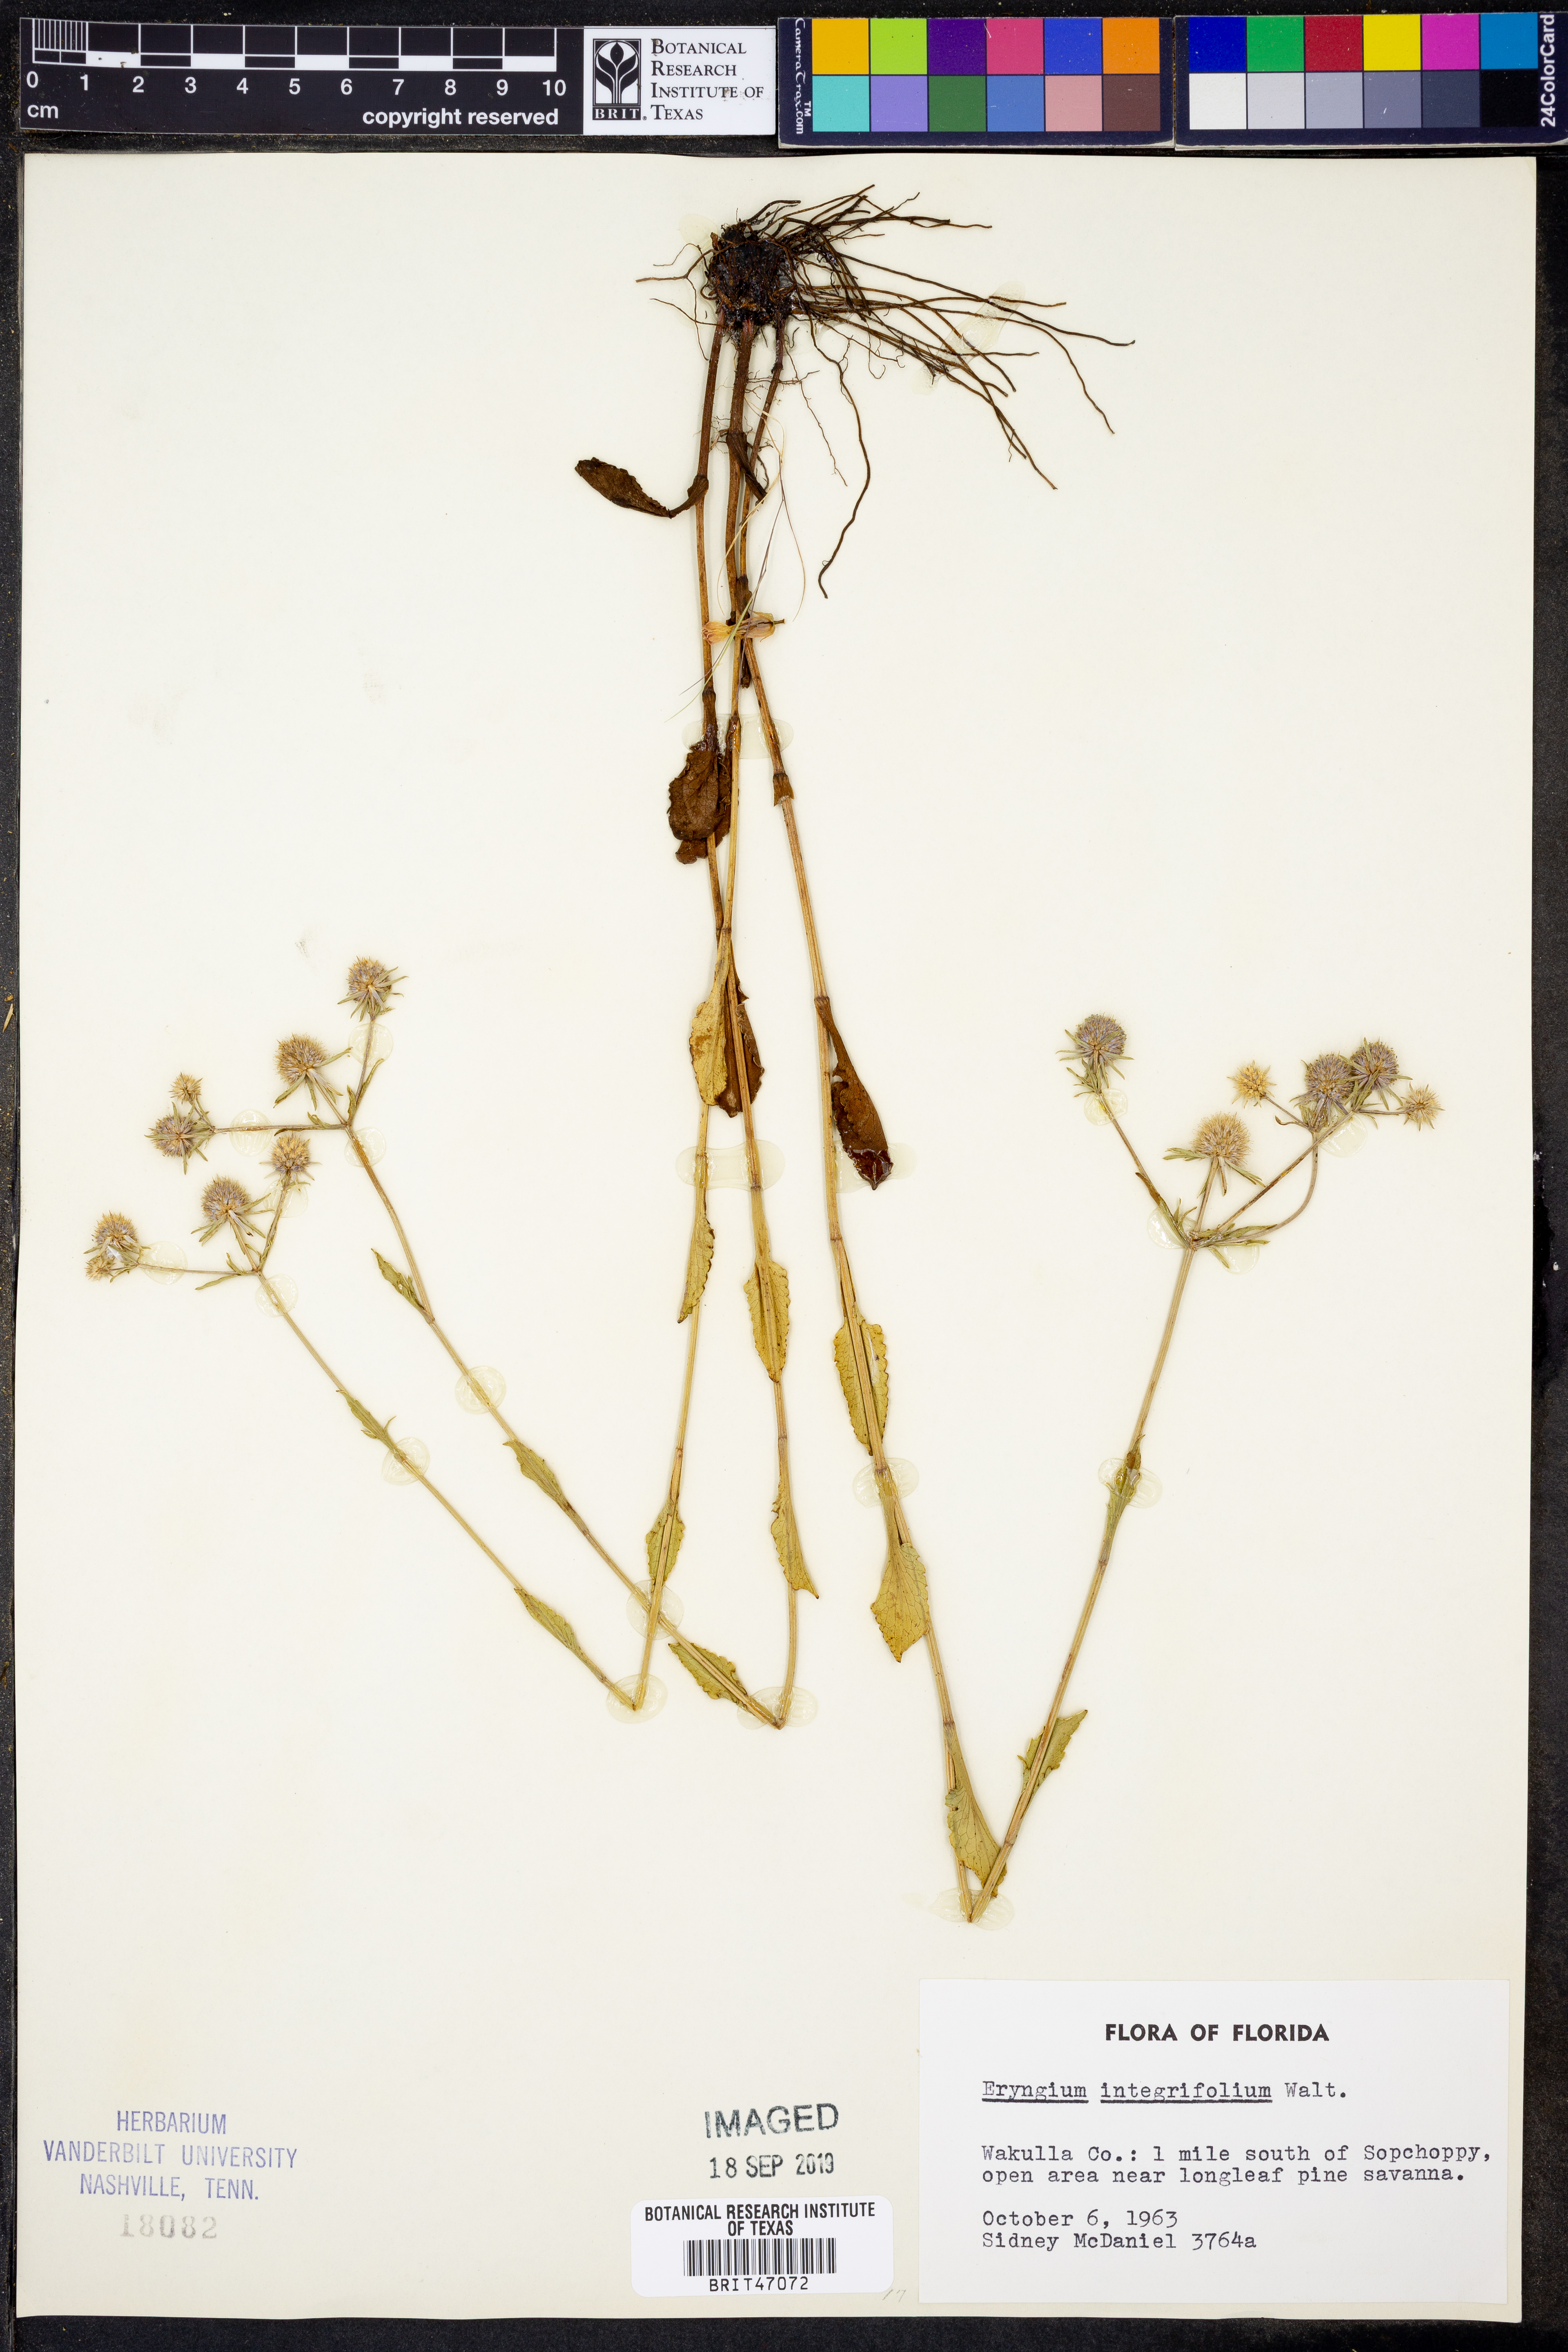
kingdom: Plantae
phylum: Tracheophyta
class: Magnoliopsida
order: Apiales
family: Apiaceae
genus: Eryngium
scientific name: Eryngium integrifolium
